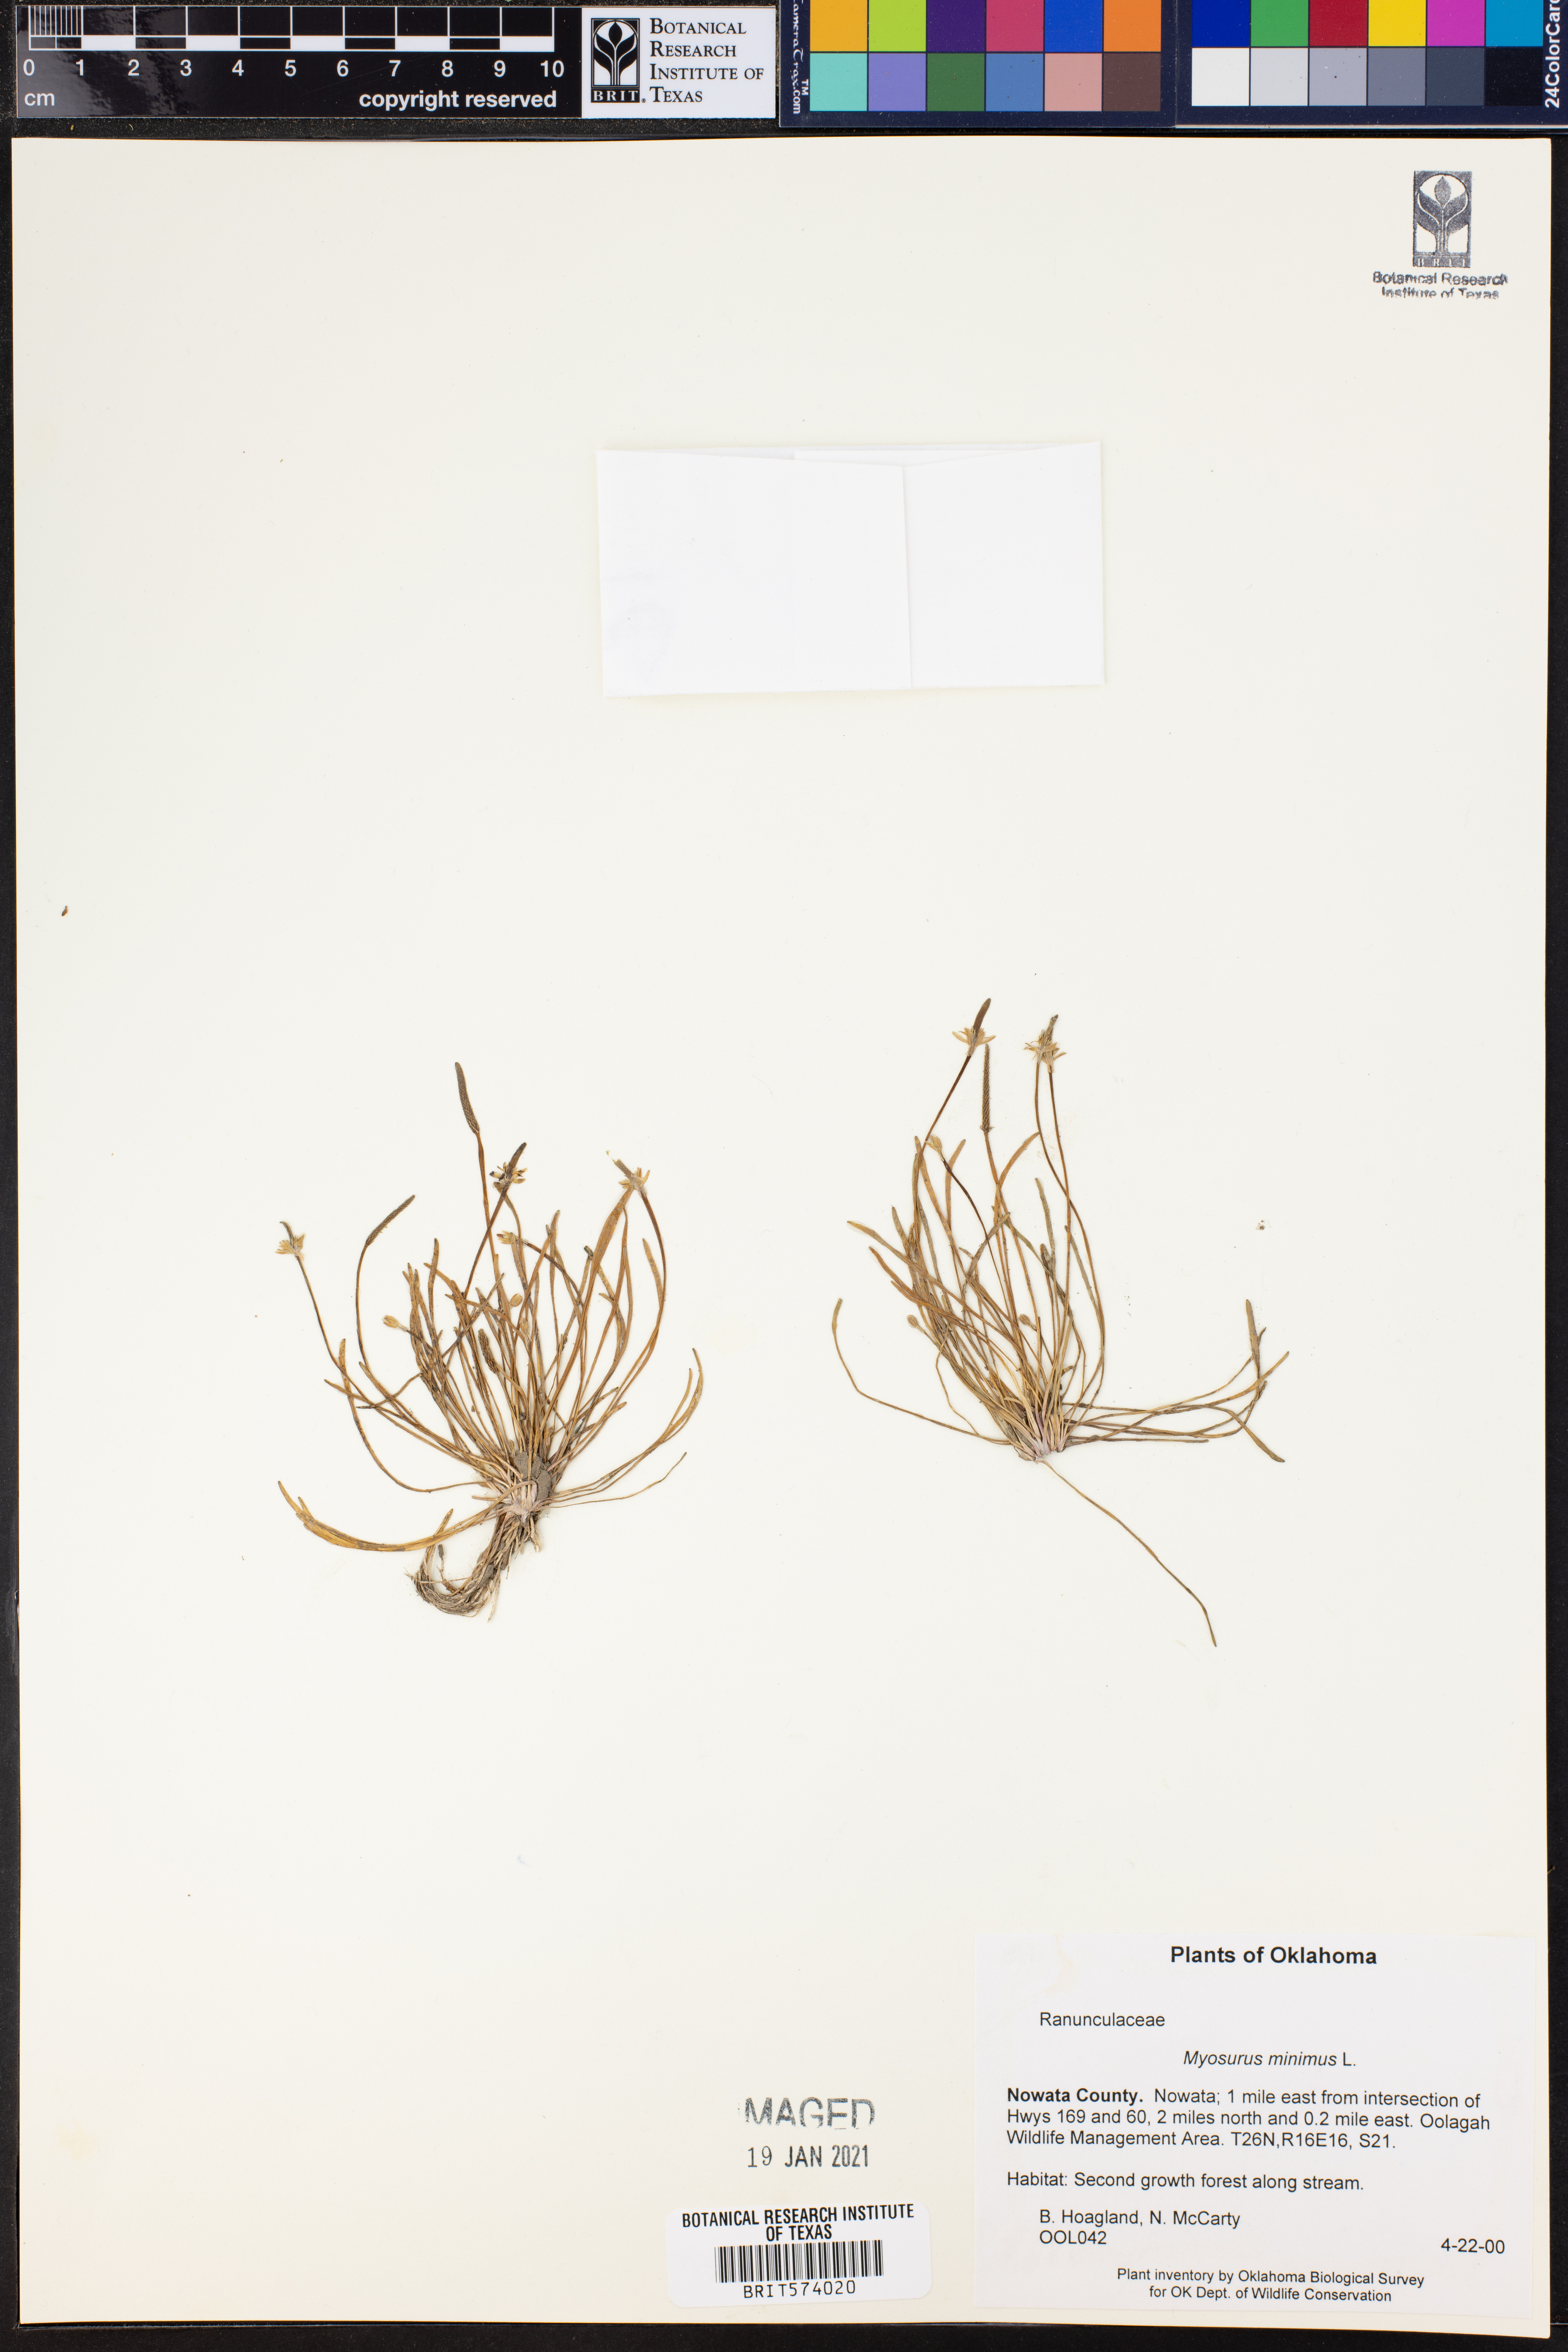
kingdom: Plantae
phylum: Tracheophyta
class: Magnoliopsida
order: Ranunculales
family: Ranunculaceae
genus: Myosurus
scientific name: Myosurus minimus
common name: Mousetail
